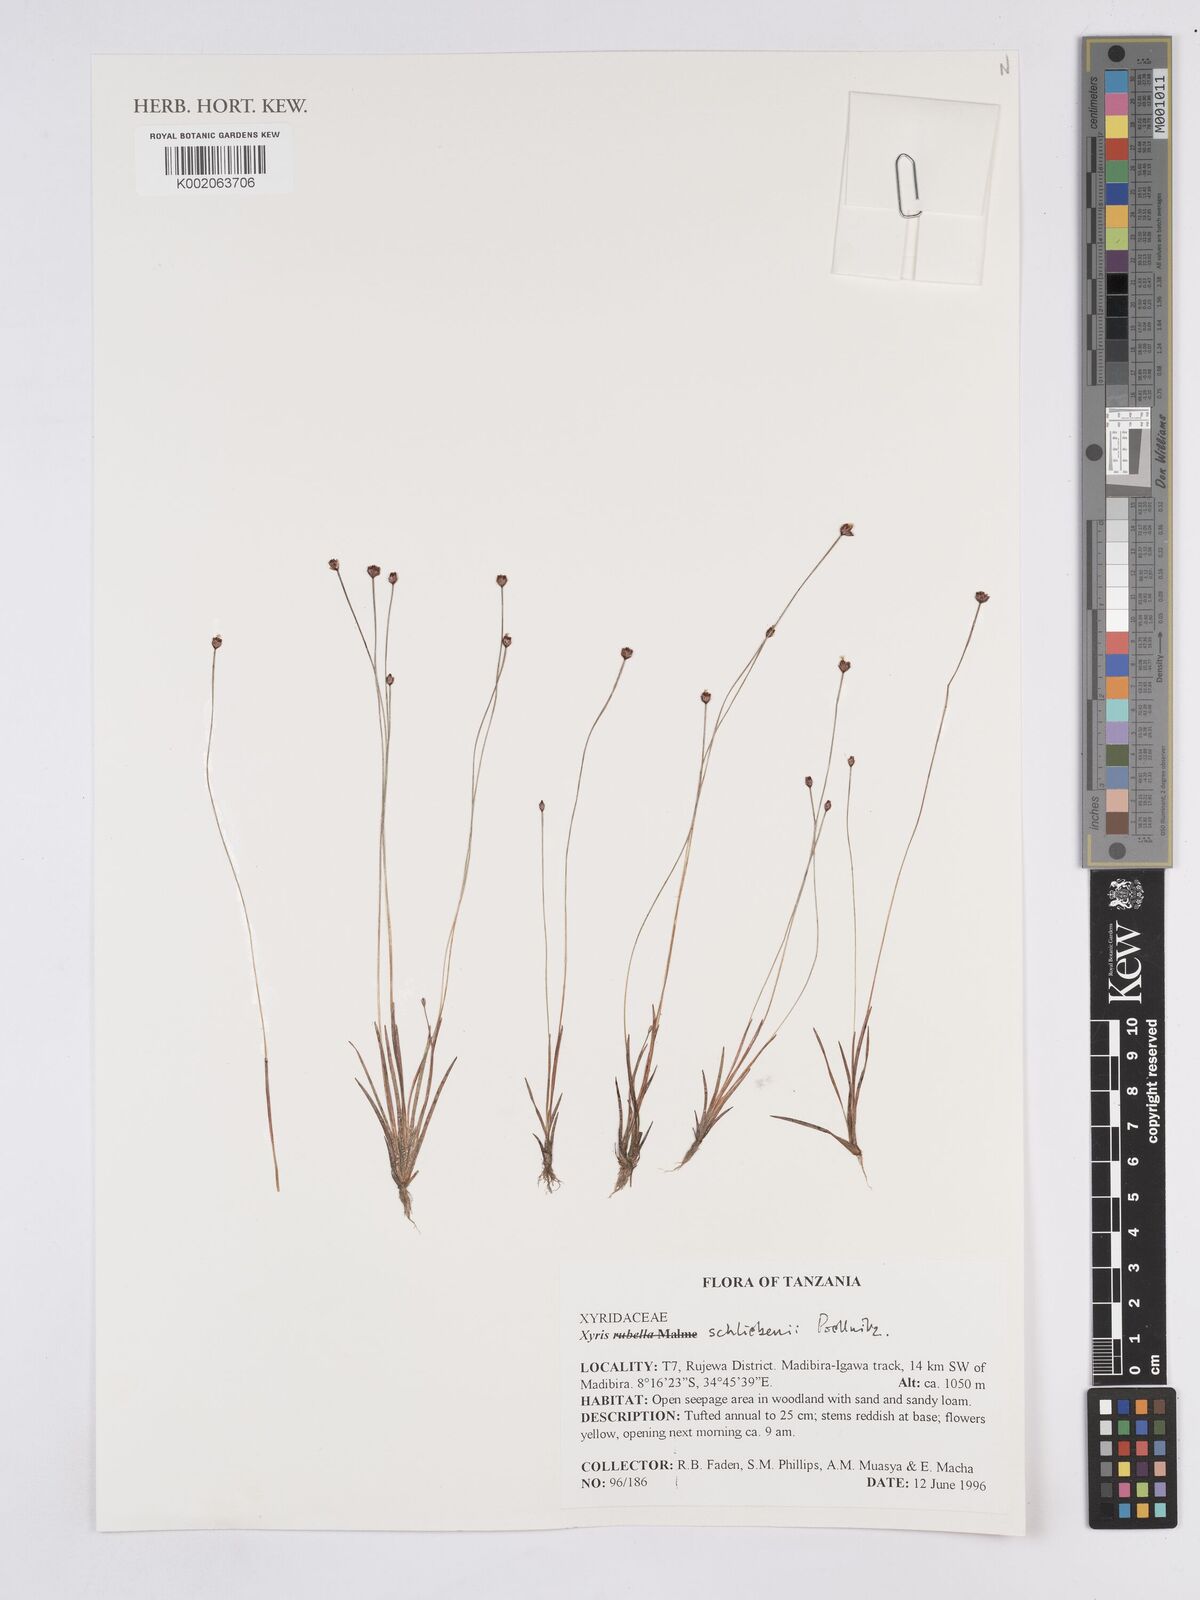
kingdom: Plantae
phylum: Tracheophyta
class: Liliopsida
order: Poales
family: Xyridaceae
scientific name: Xyridaceae
